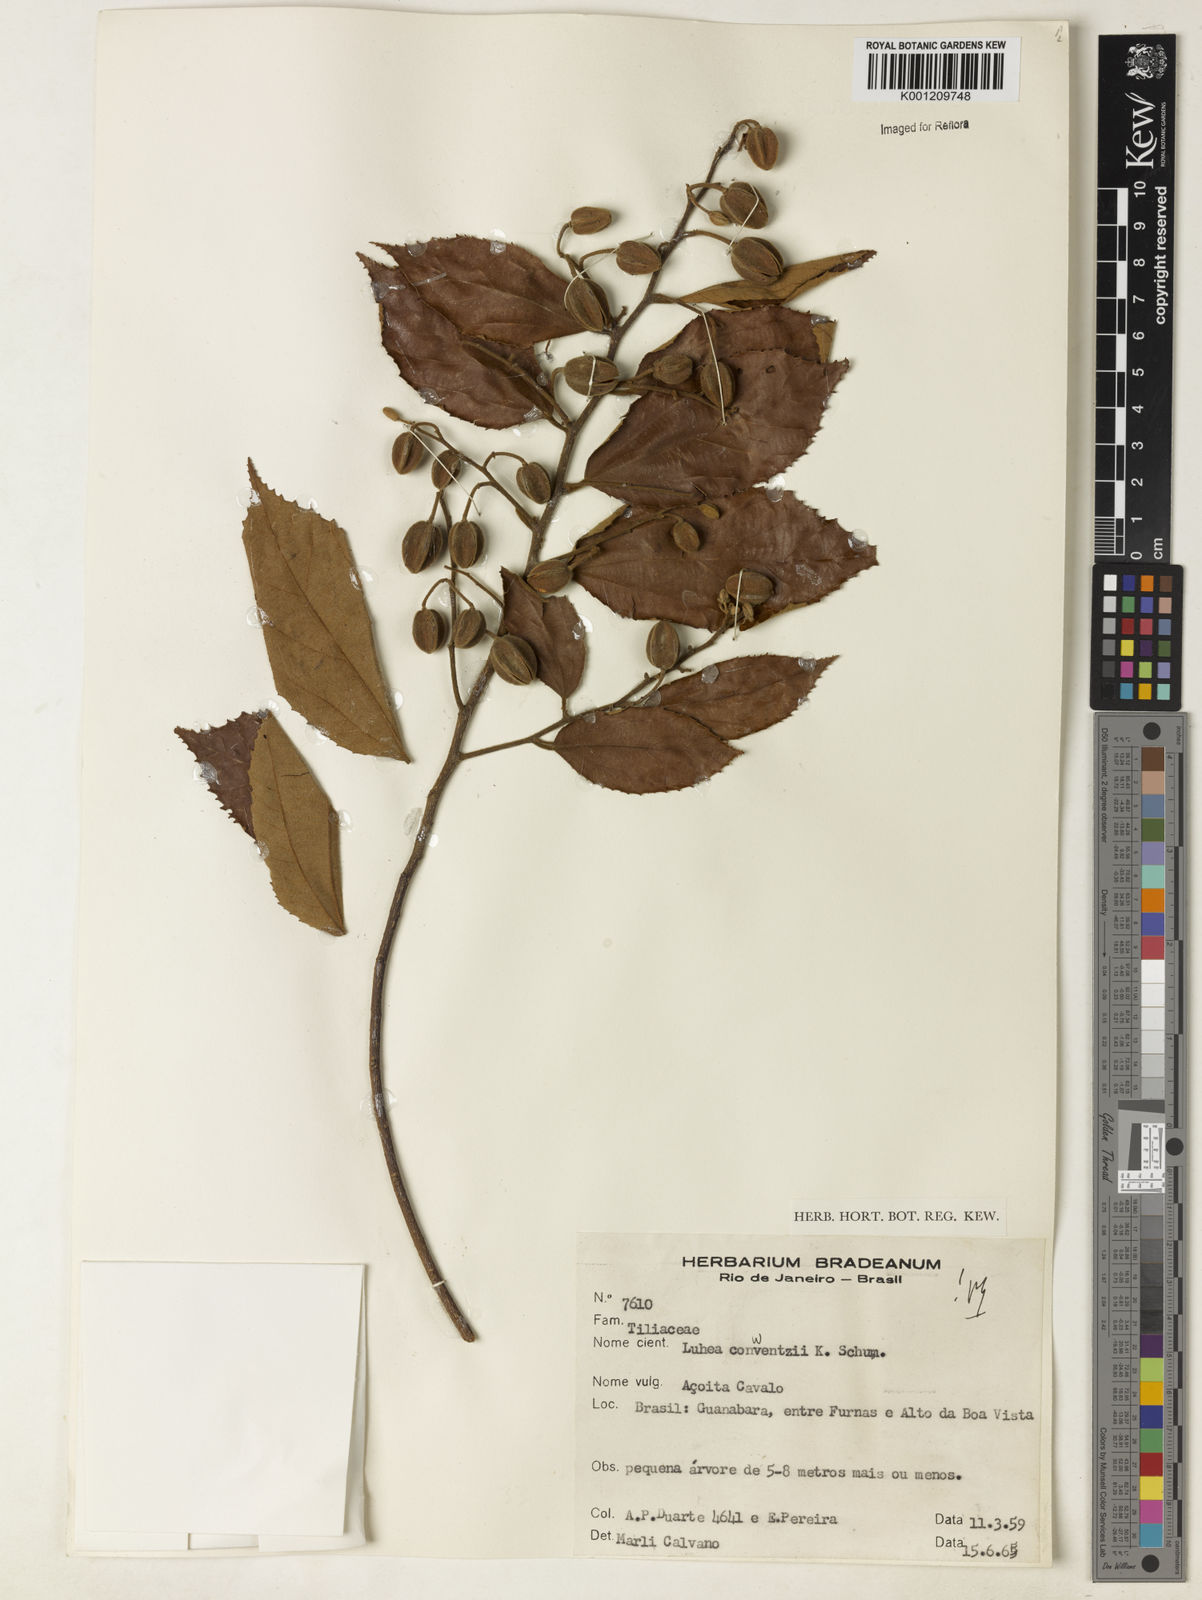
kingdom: Plantae
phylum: Tracheophyta
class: Magnoliopsida
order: Malvales
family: Malvaceae
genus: Luehea
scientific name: Luehea
